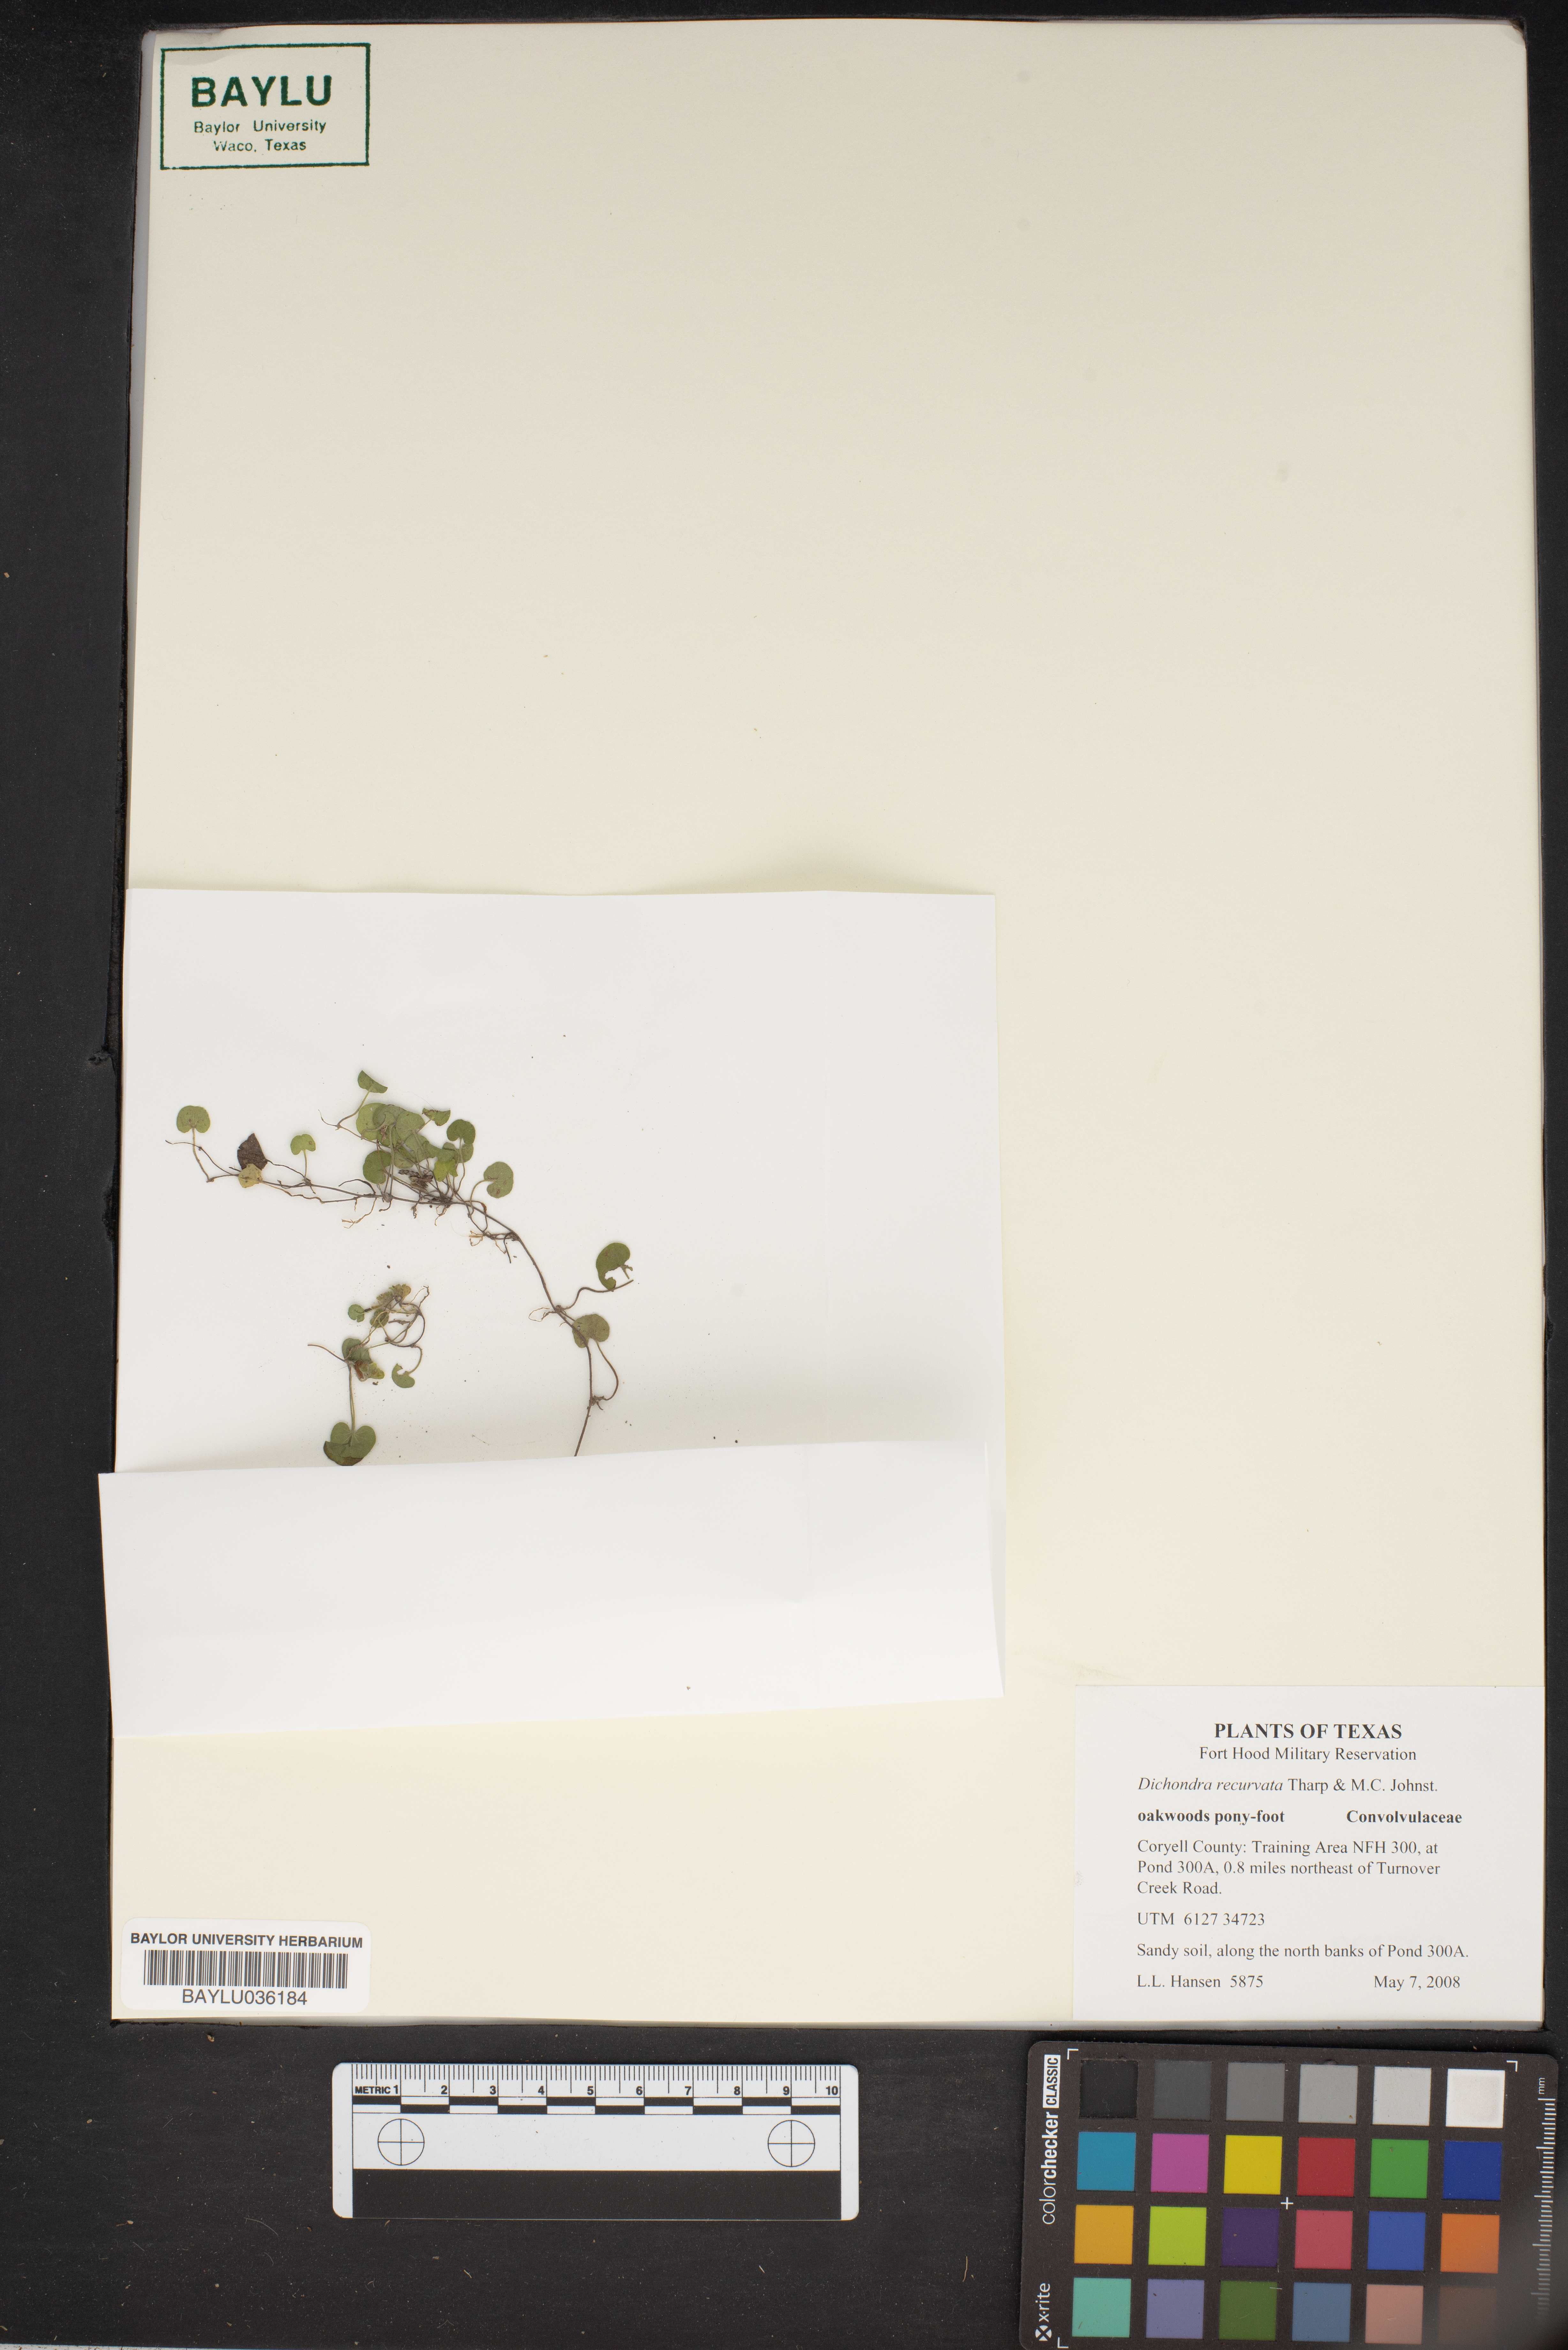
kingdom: Plantae
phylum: Tracheophyta
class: Magnoliopsida
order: Solanales
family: Convolvulaceae
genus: Dichondra
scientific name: Dichondra recurvata
